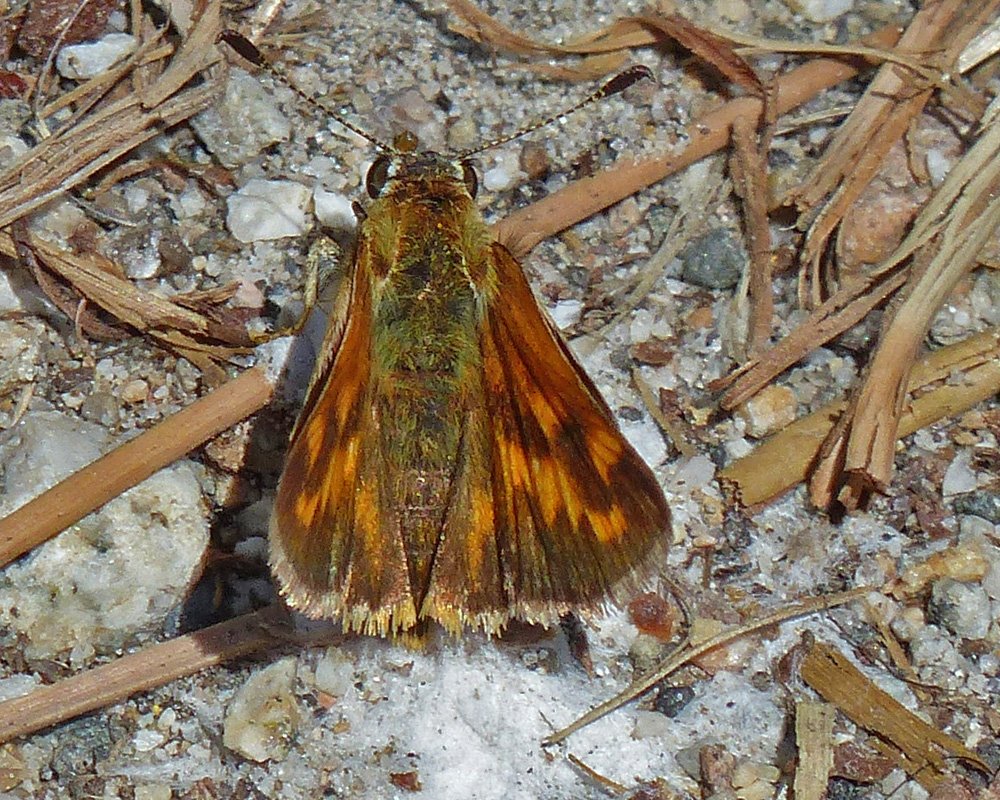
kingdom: Animalia
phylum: Arthropoda
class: Insecta
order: Lepidoptera
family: Hesperiidae
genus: Ochlodes
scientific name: Ochlodes sylvanoides
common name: Woodland Skipper
